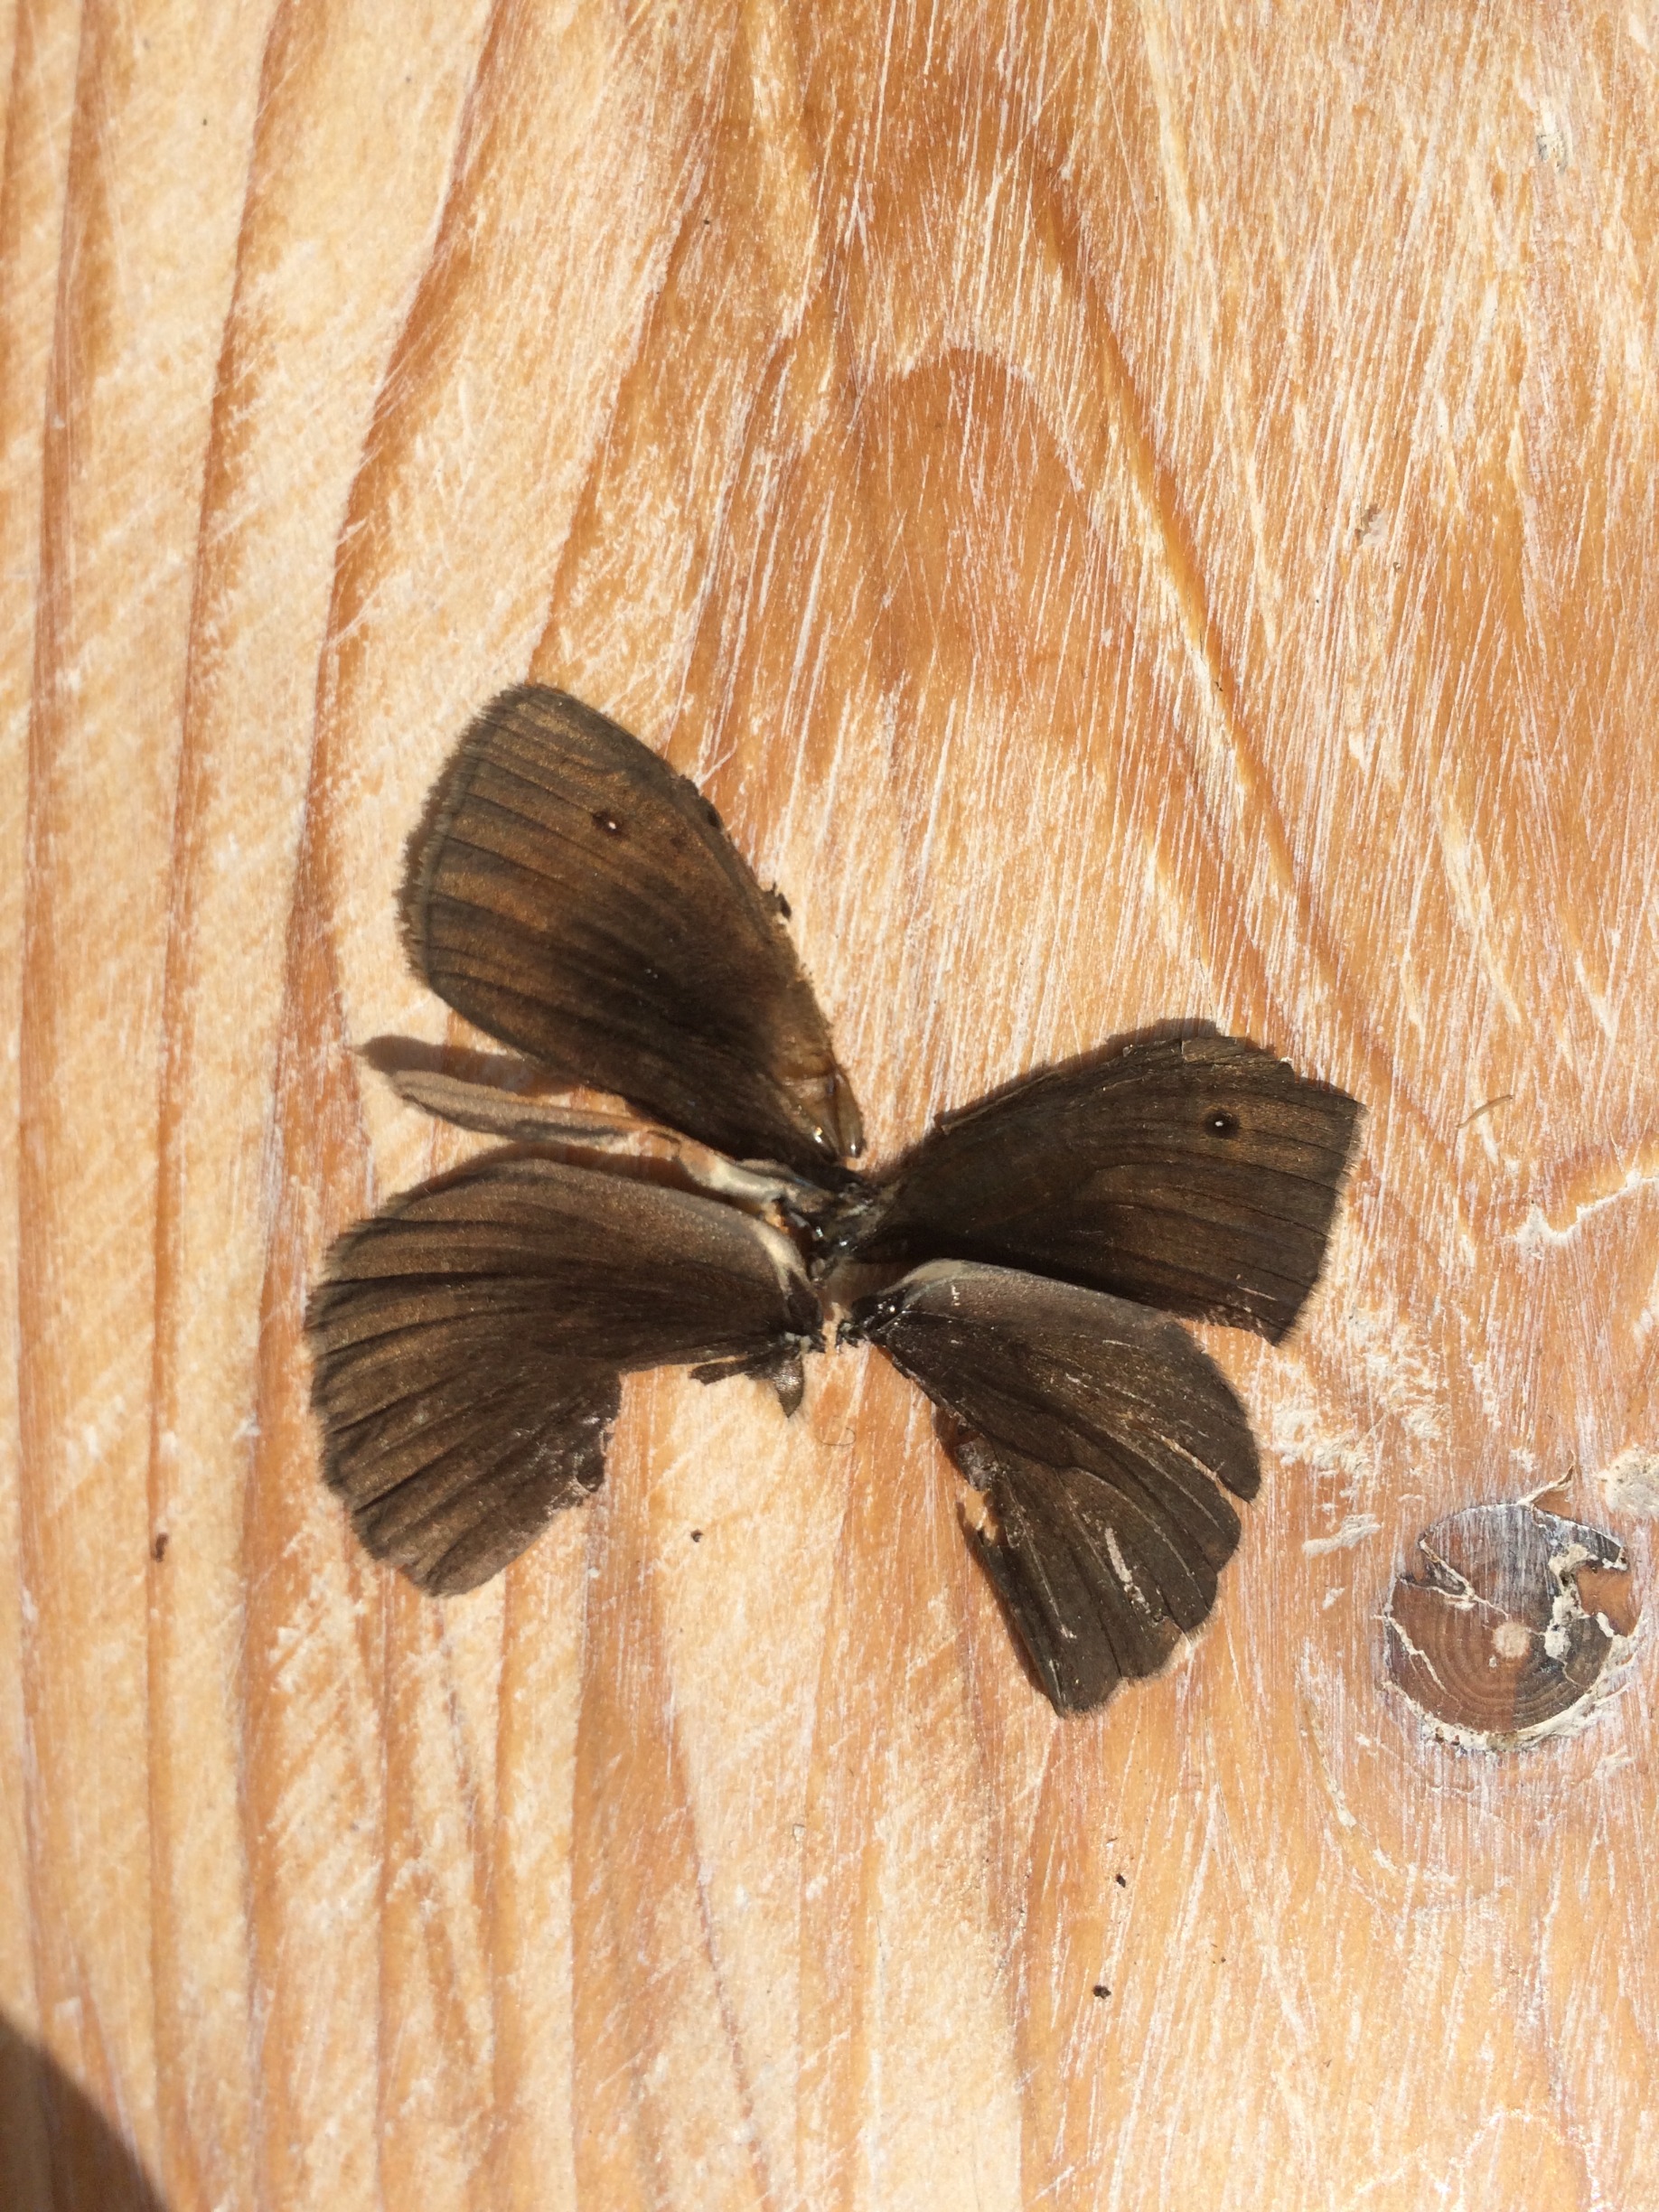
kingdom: Animalia
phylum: Arthropoda
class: Insecta
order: Lepidoptera
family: Nymphalidae
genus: Maniola
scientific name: Maniola jurtina
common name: Græsrandøje
